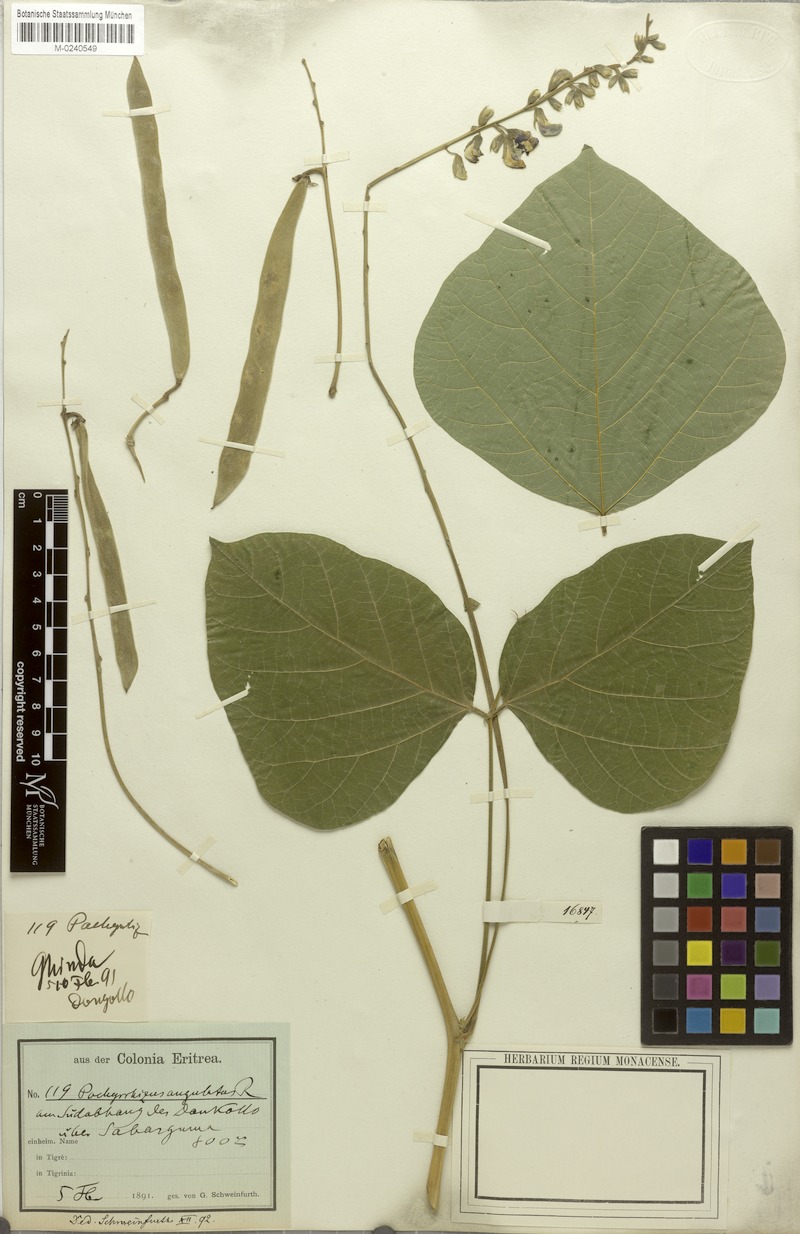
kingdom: Plantae
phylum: Tracheophyta
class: Magnoliopsida
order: Fabales
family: Fabaceae
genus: Neorautanenia
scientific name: Neorautanenia mitis
